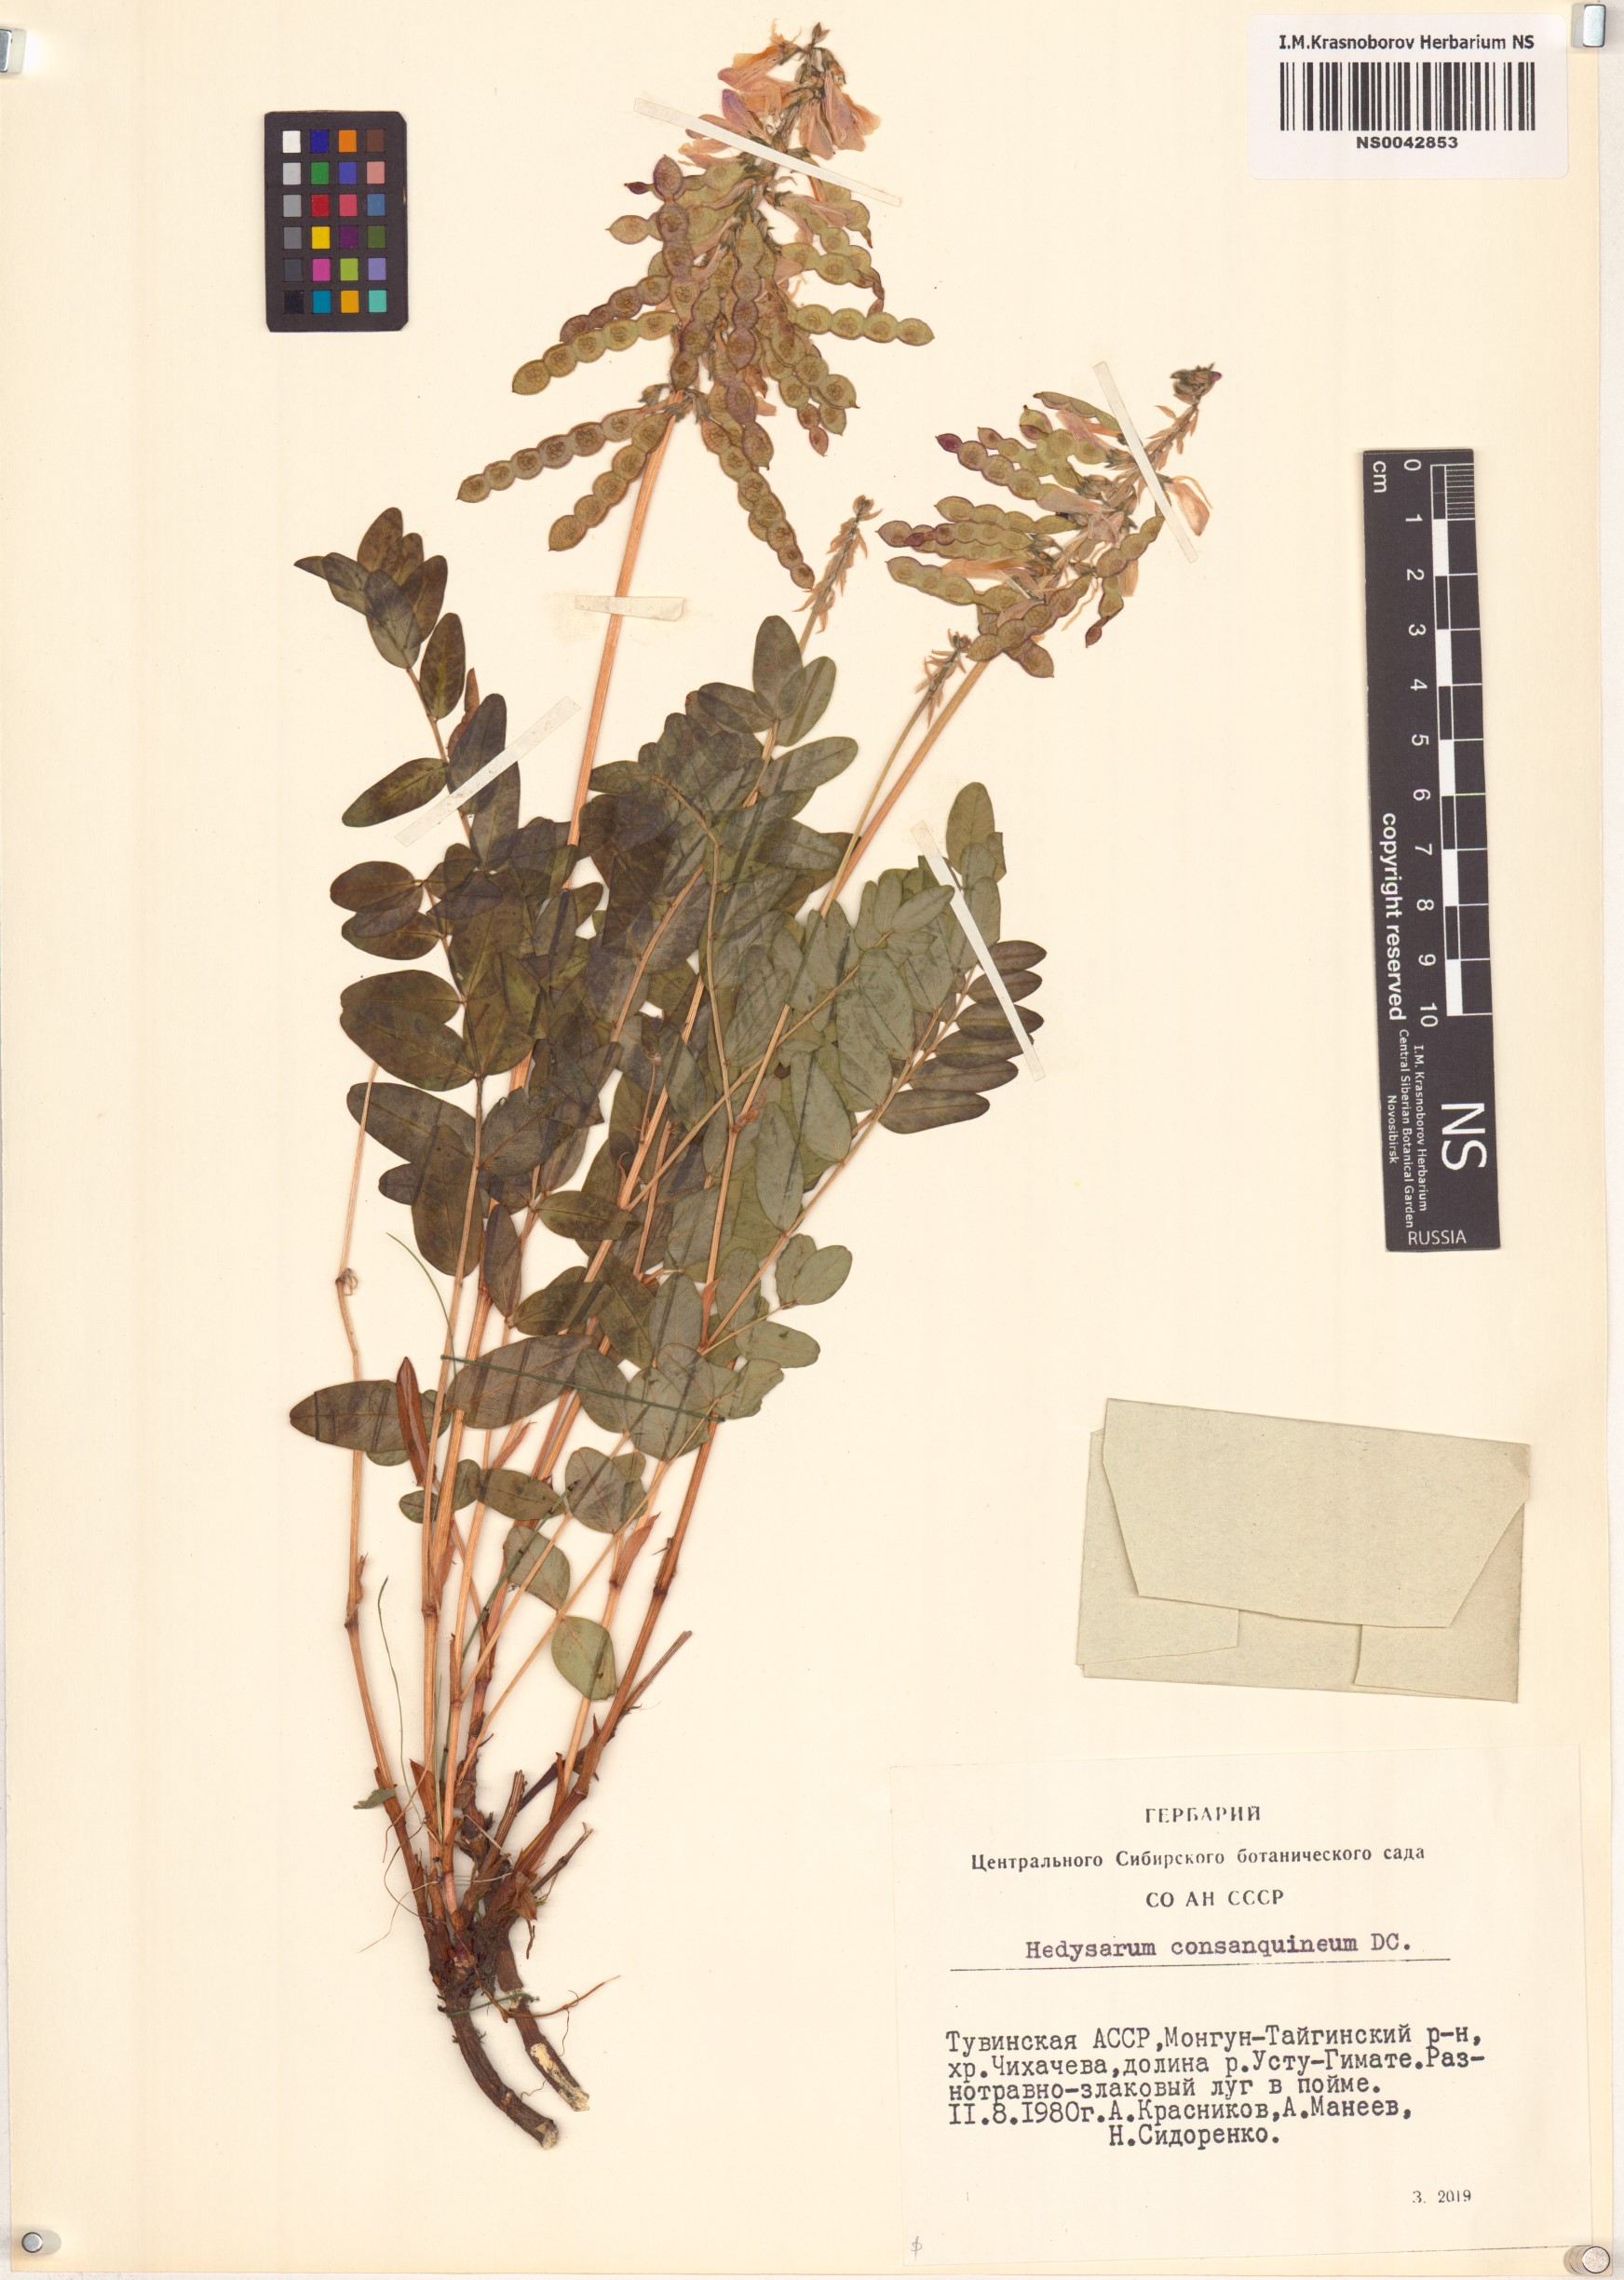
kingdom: Plantae
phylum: Tracheophyta
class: Magnoliopsida
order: Fabales
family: Fabaceae
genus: Hedysarum
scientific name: Hedysarum consanguineum
